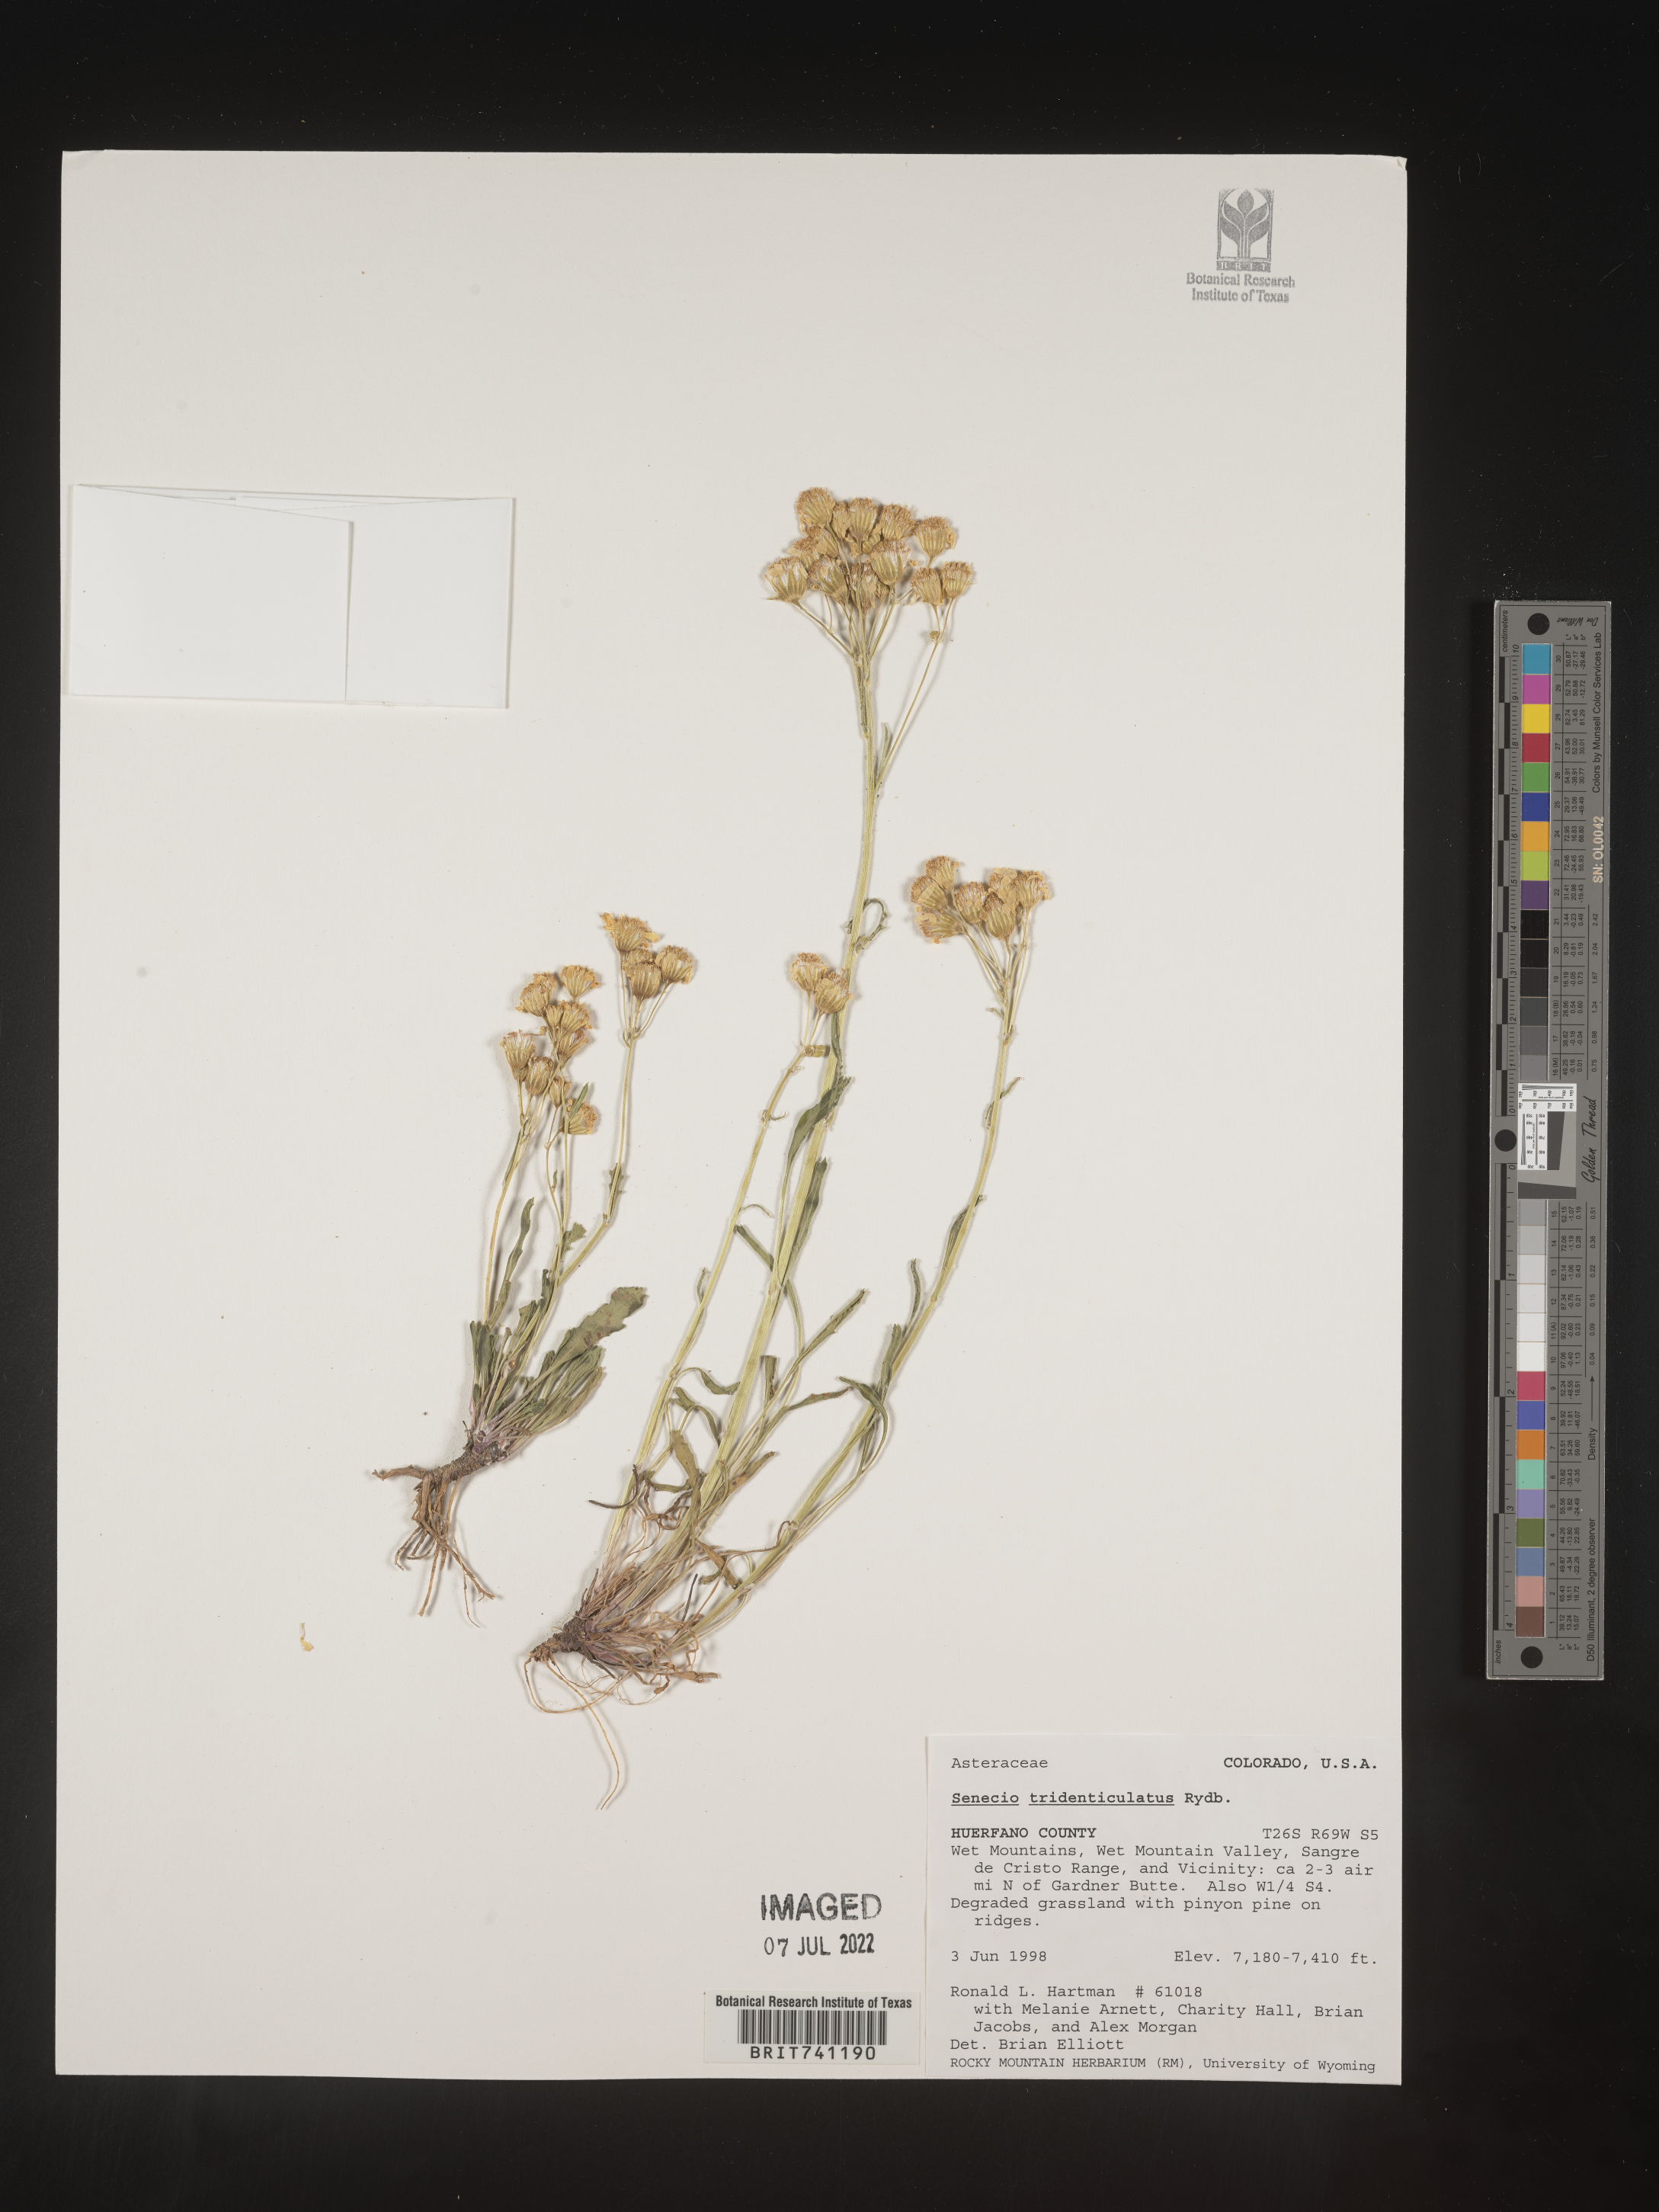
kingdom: Plantae
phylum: Tracheophyta
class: Magnoliopsida
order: Asterales
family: Asteraceae
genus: Packera
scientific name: Packera thurberi
